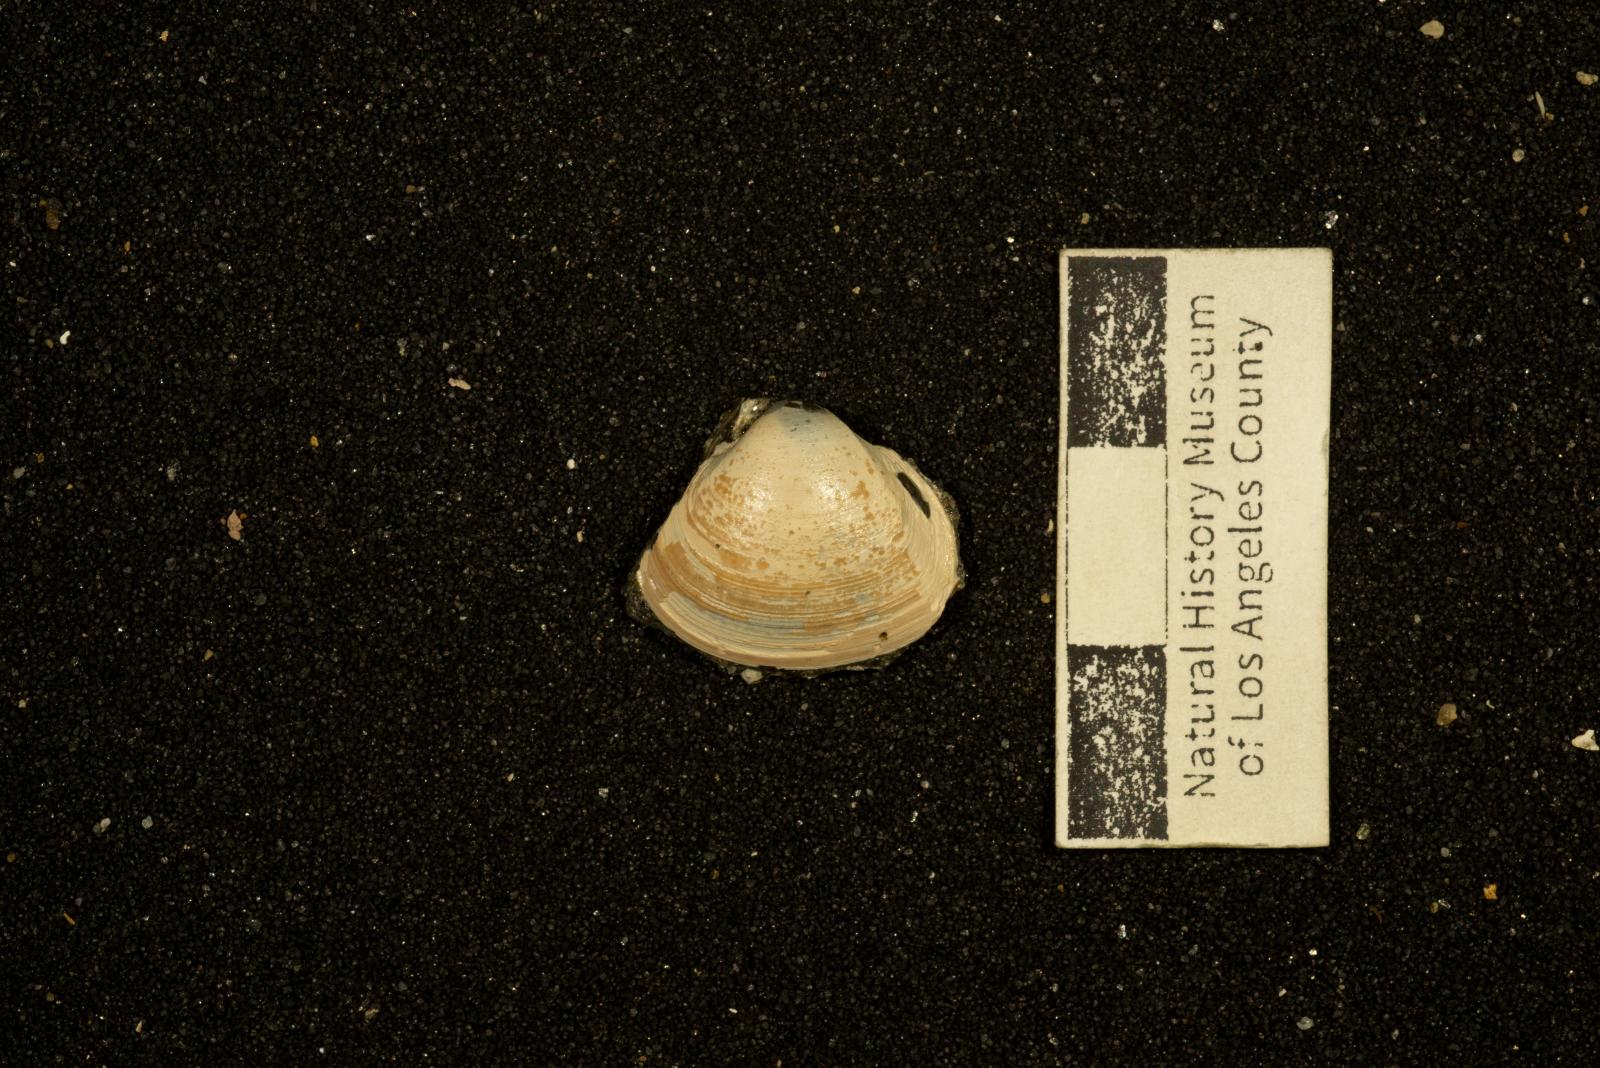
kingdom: Animalia
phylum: Mollusca
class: Bivalvia
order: Venerida
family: Mactridae
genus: Cymbophora
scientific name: Cymbophora Laevicardium suciense
